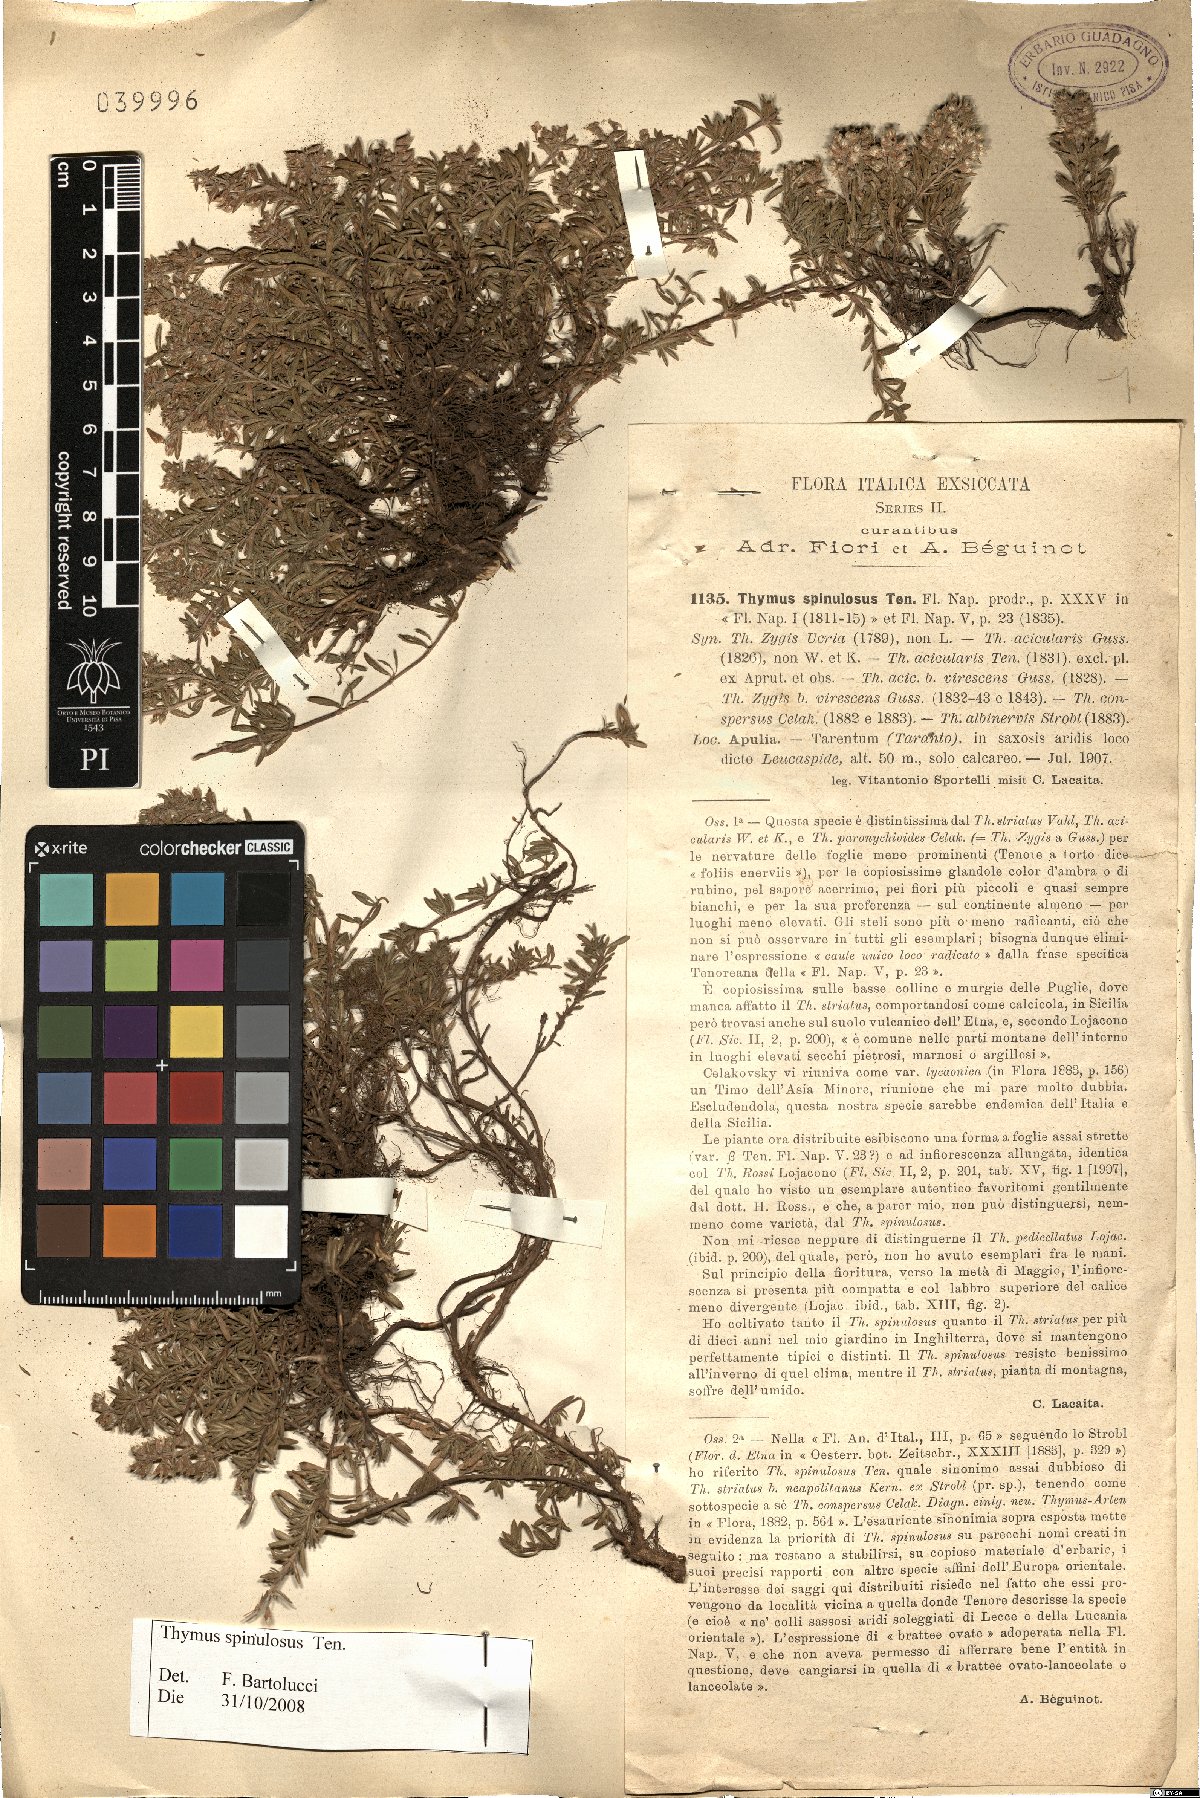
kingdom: Plantae
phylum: Tracheophyta
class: Magnoliopsida
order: Lamiales
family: Lamiaceae
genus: Thymus
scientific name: Thymus spinulosus
